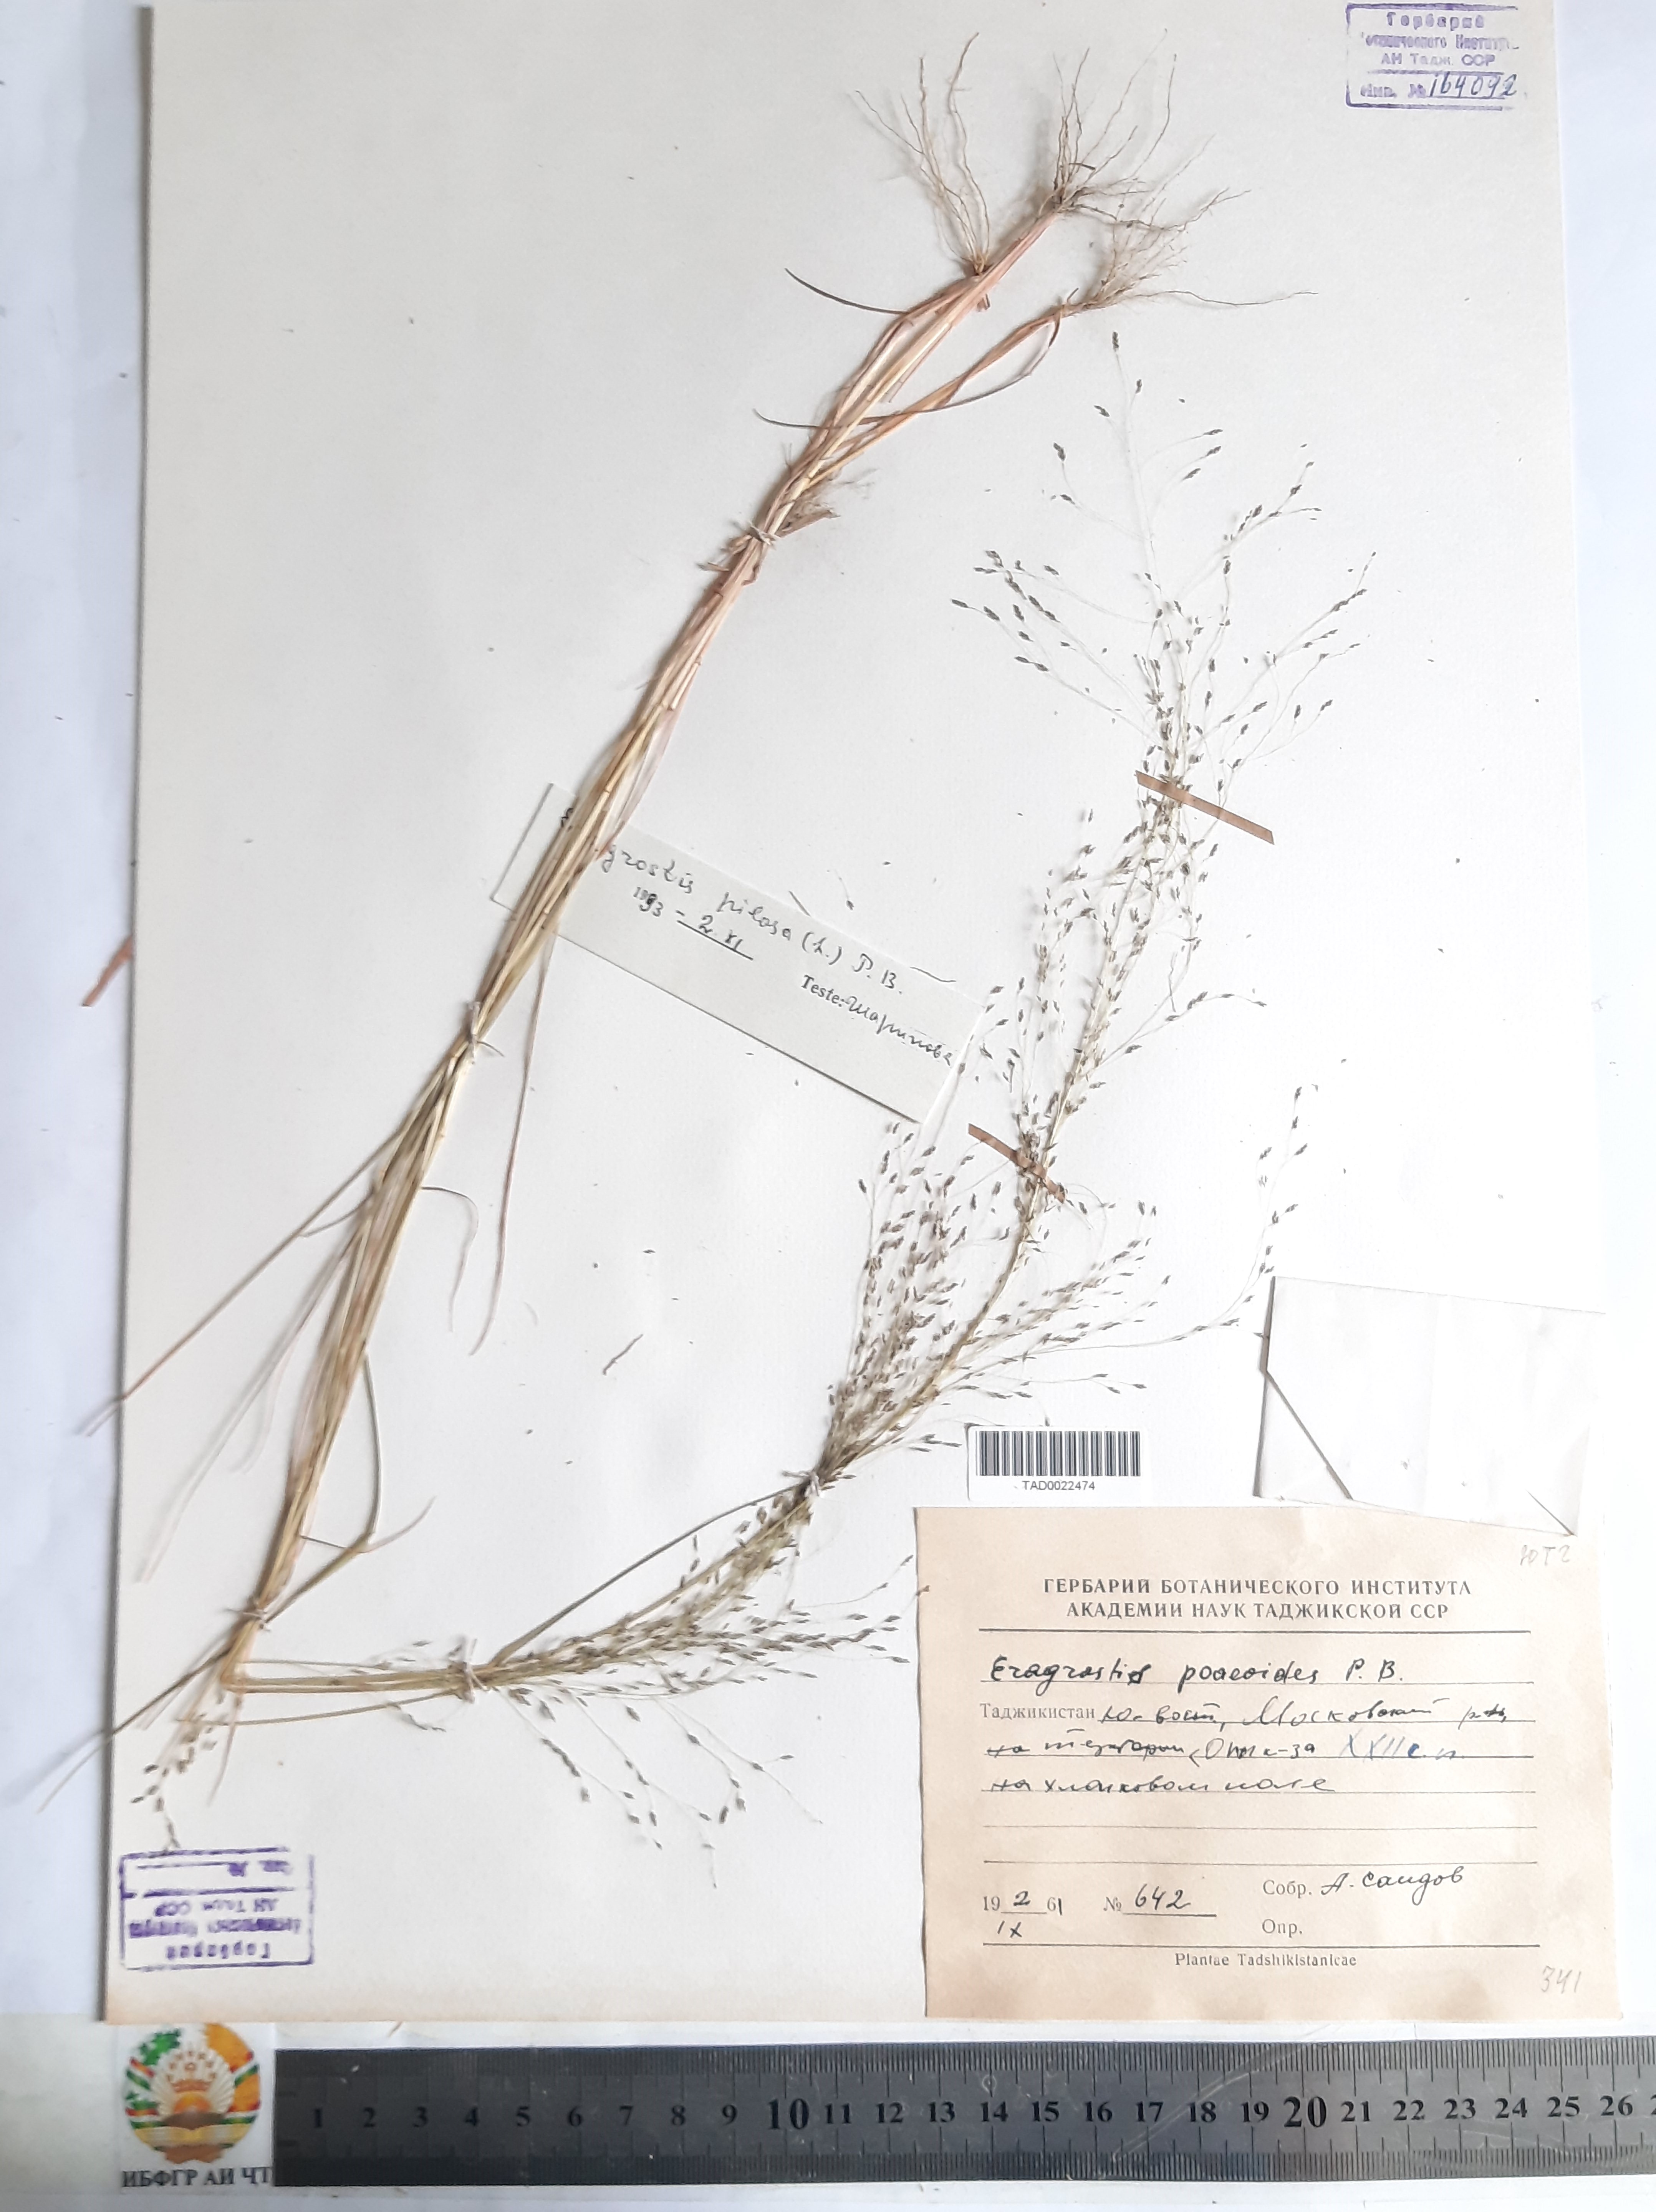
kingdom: Plantae
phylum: Tracheophyta
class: Liliopsida
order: Poales
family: Poaceae
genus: Eragrostis
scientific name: Eragrostis pilosa
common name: Indian lovegrass
